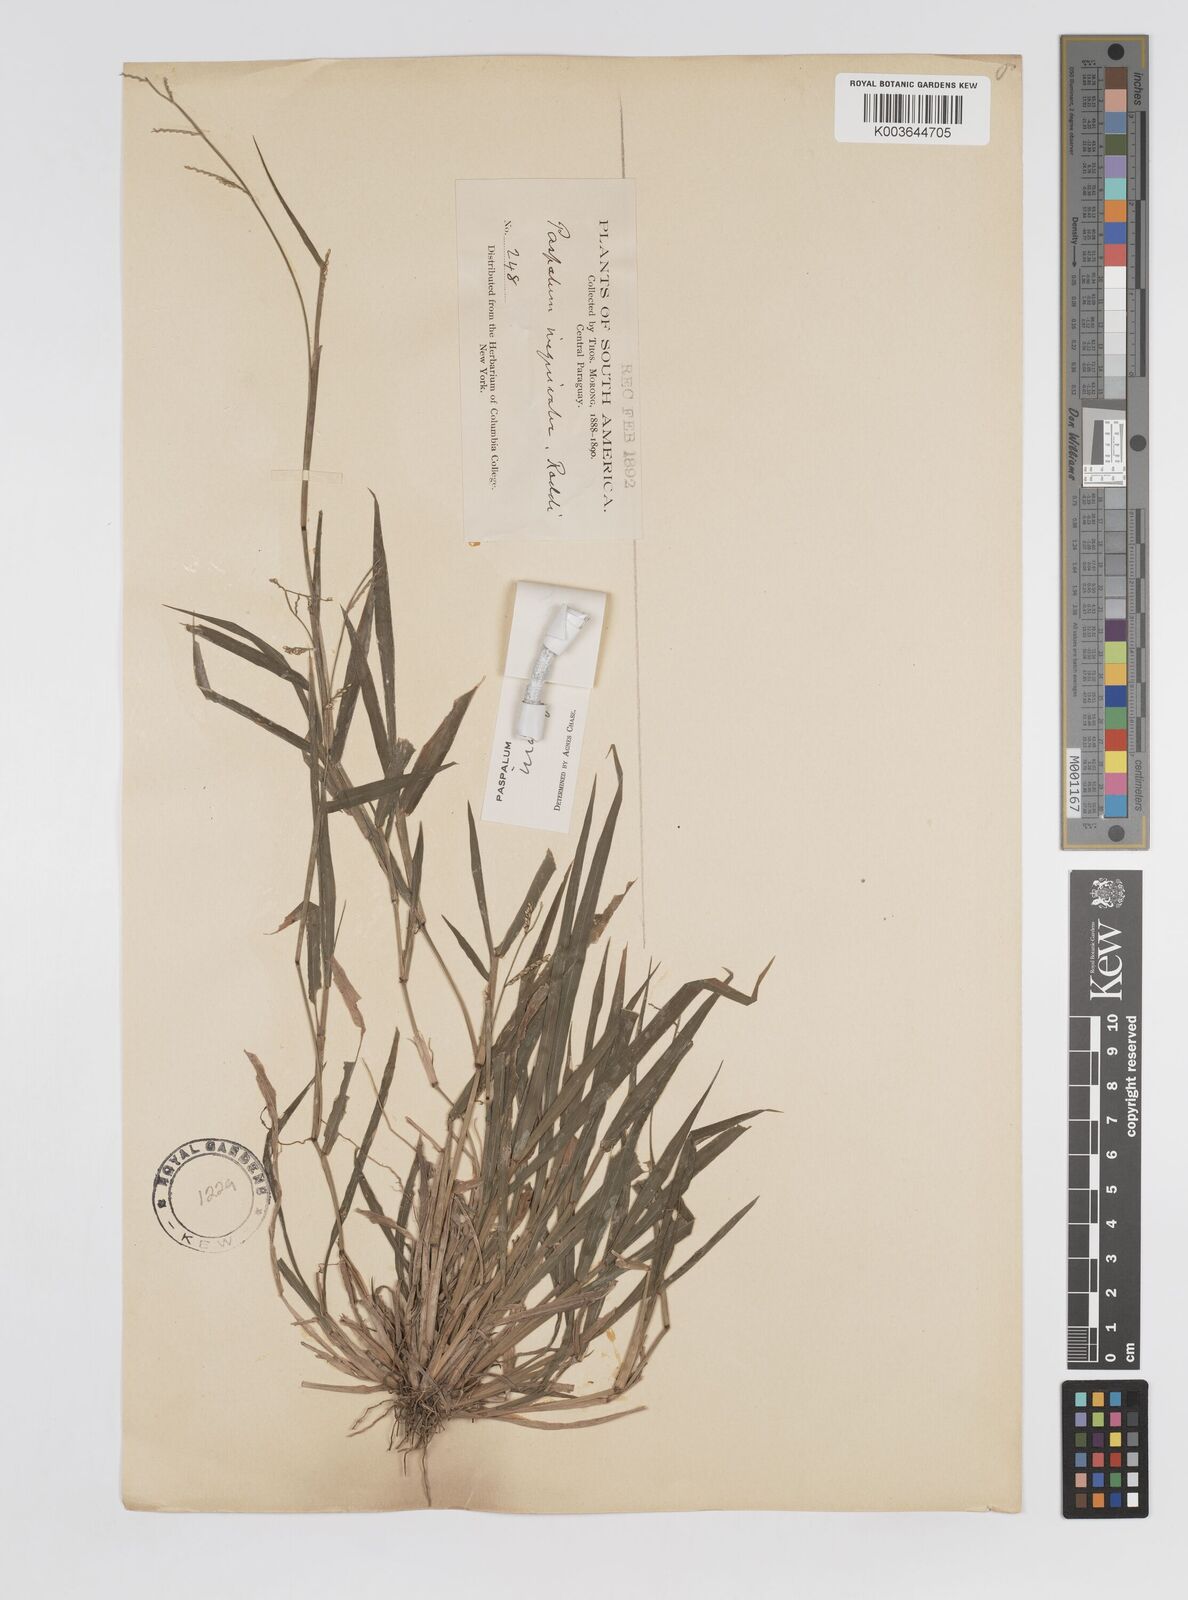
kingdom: Plantae
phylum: Tracheophyta
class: Liliopsida
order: Poales
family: Poaceae
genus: Paspalum
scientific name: Paspalum inaequivalve
